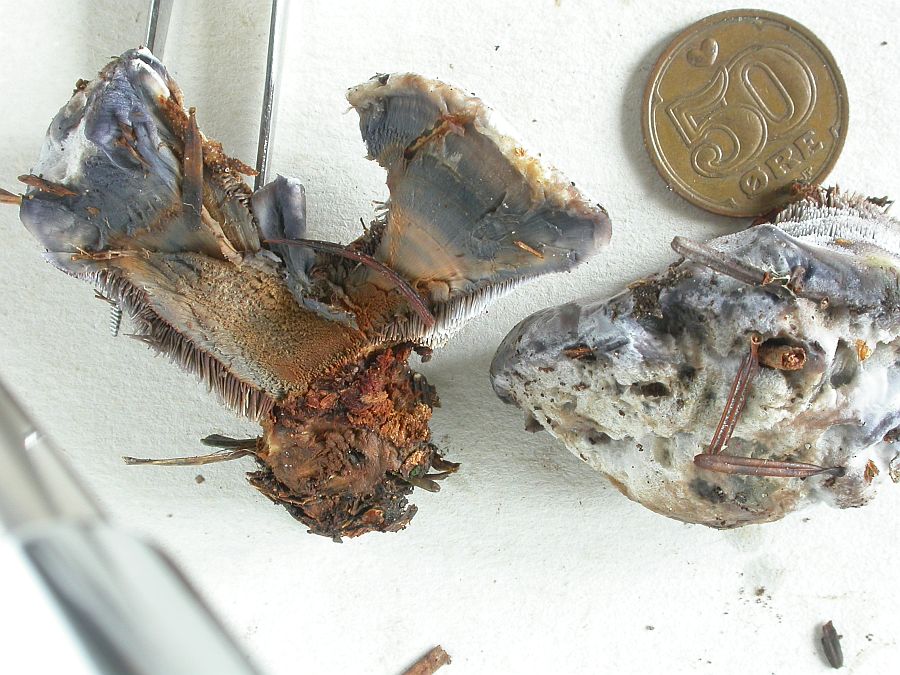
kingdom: Fungi
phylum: Basidiomycota
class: Agaricomycetes
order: Thelephorales
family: Bankeraceae
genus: Hydnellum
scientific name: Hydnellum caeruleum
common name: blålig korkpigsvamp
